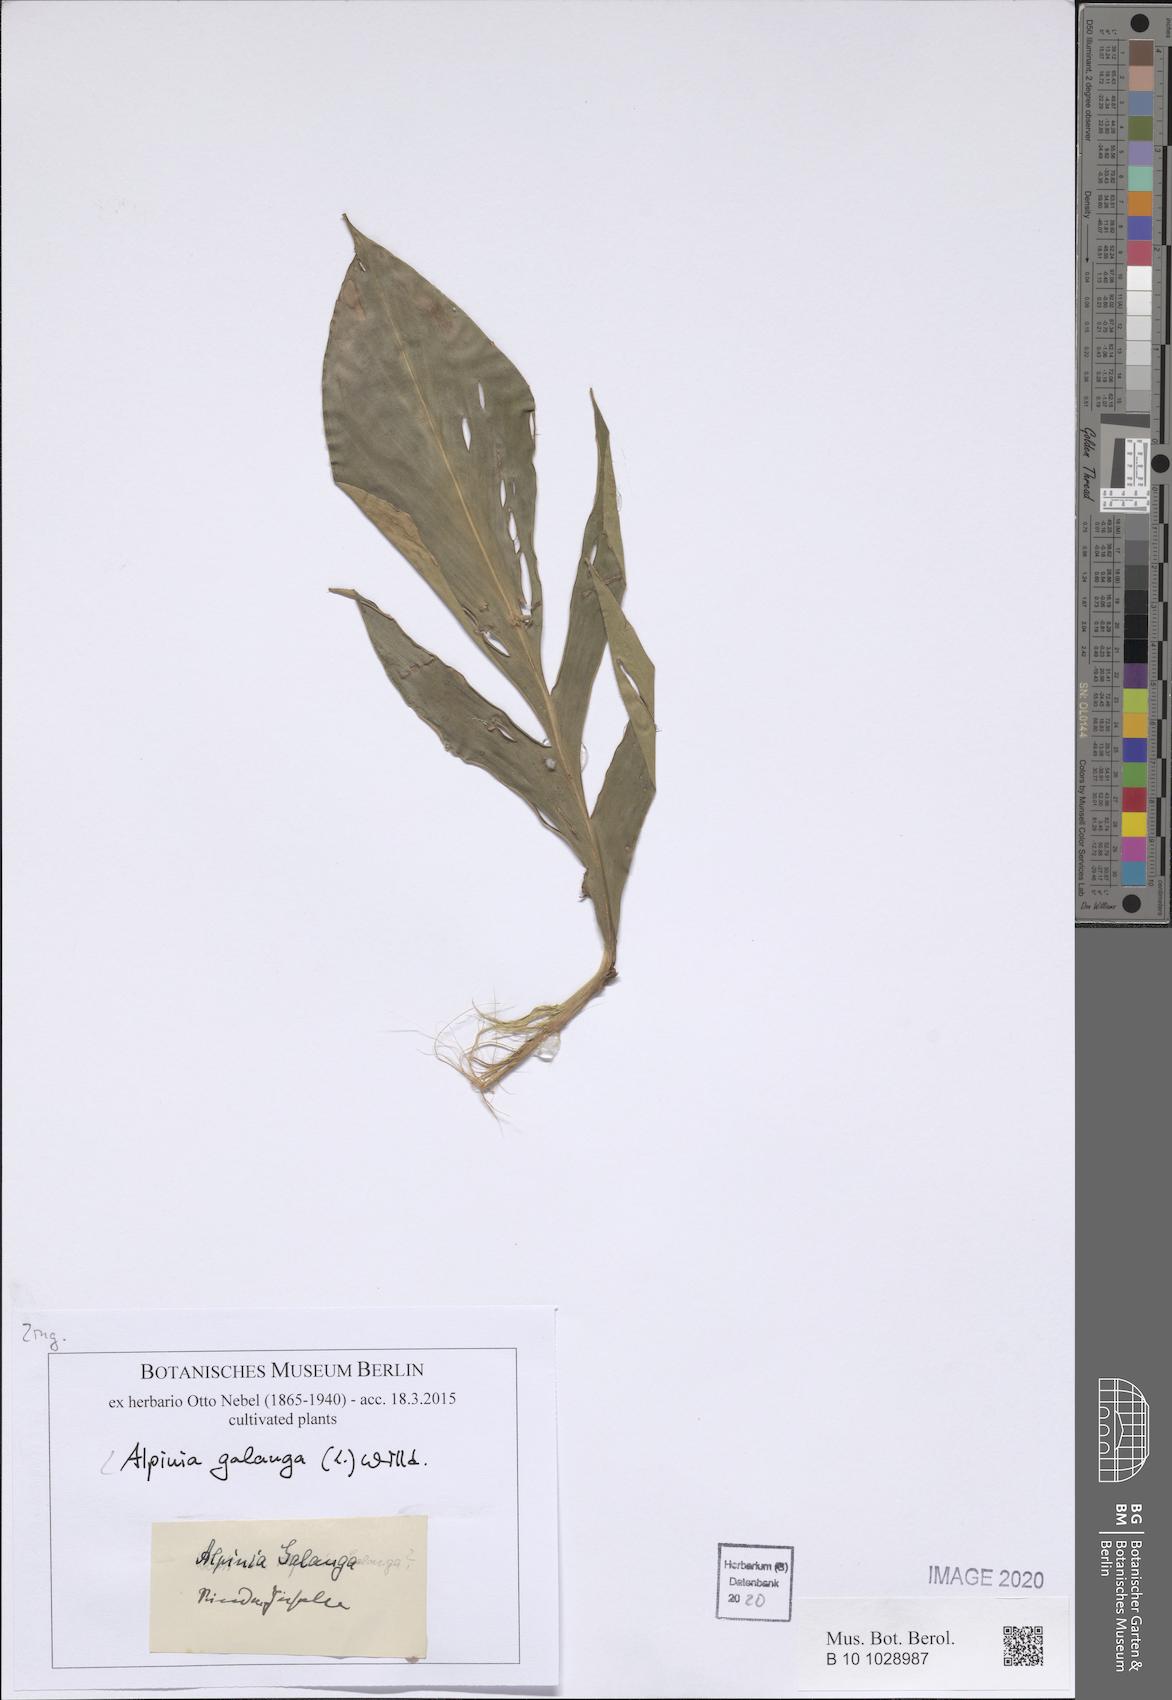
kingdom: Plantae
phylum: Tracheophyta
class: Liliopsida
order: Zingiberales
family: Zingiberaceae
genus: Alpinia
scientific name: Alpinia galanga
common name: Siamese-ginger
